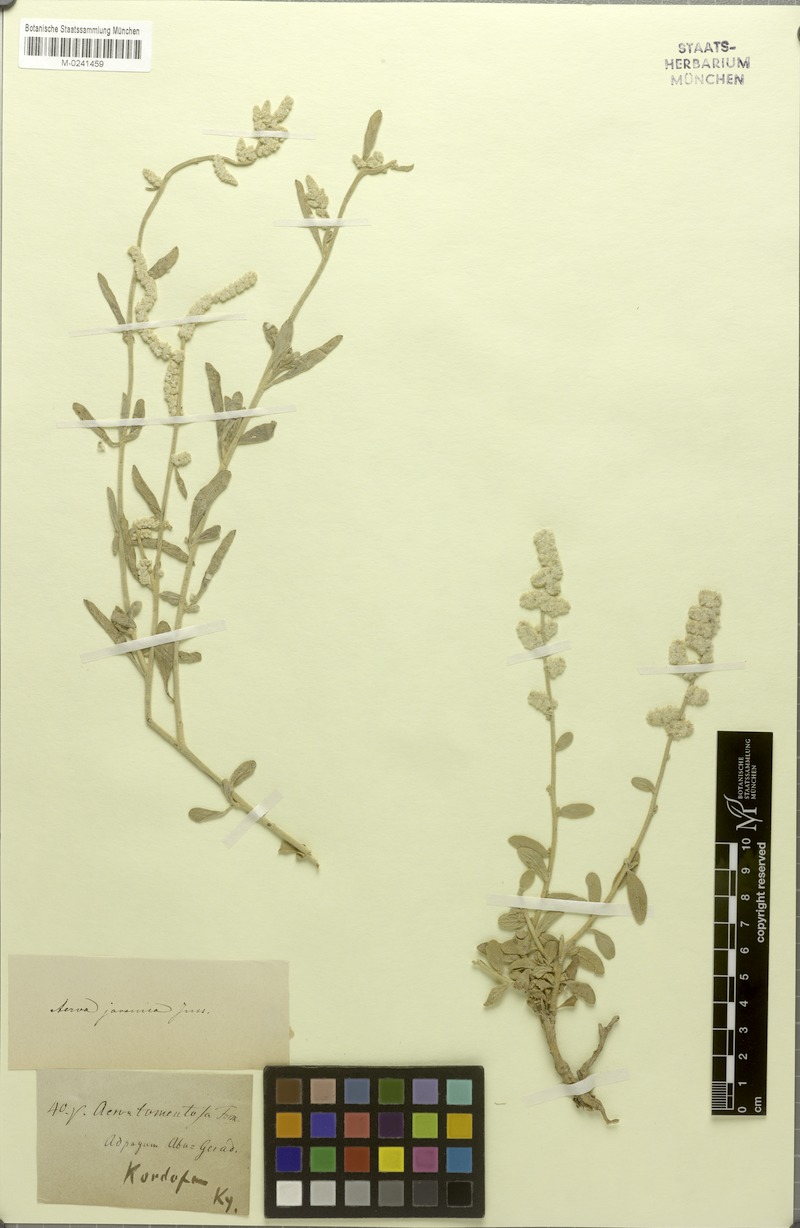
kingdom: Plantae
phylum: Tracheophyta
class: Magnoliopsida
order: Caryophyllales
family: Amaranthaceae
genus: Aerva
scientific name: Aerva javanica
